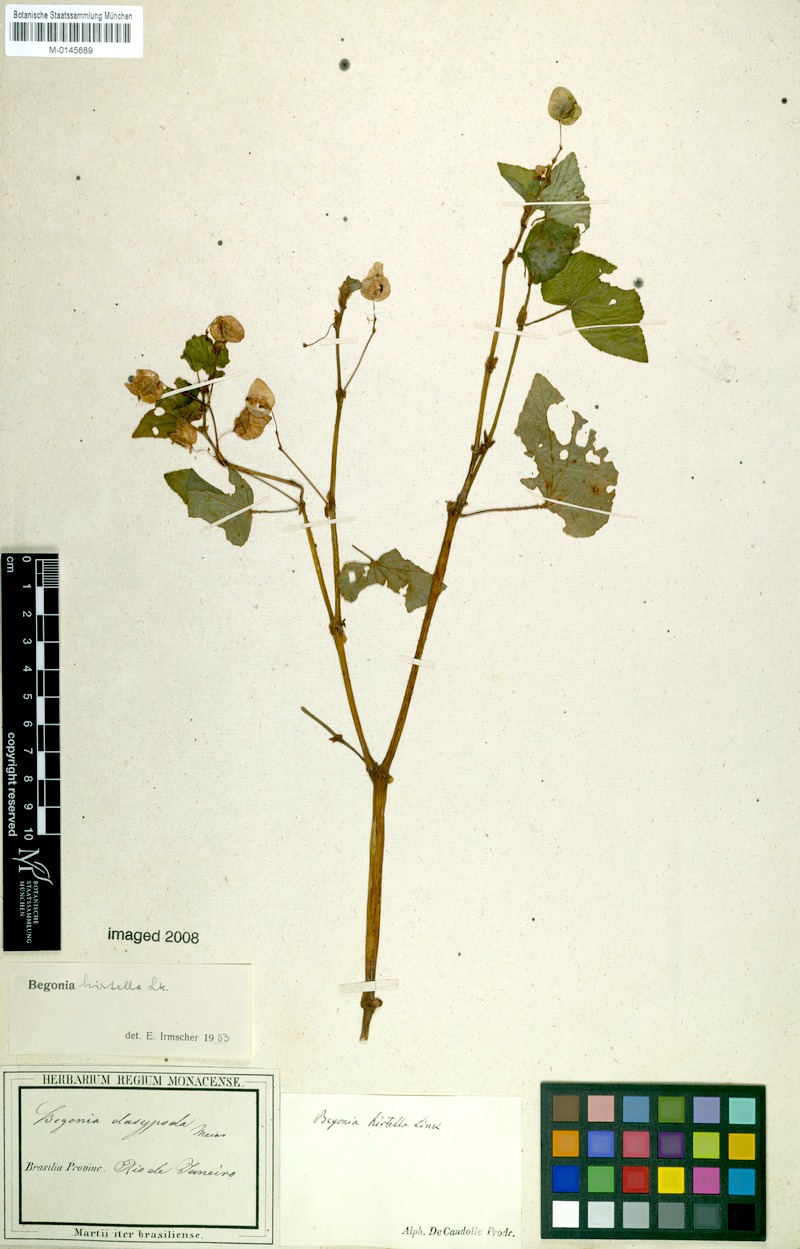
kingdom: Plantae
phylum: Tracheophyta
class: Magnoliopsida
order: Cucurbitales
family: Begoniaceae
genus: Begonia
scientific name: Begonia hirtella
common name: Brazilian begonia
